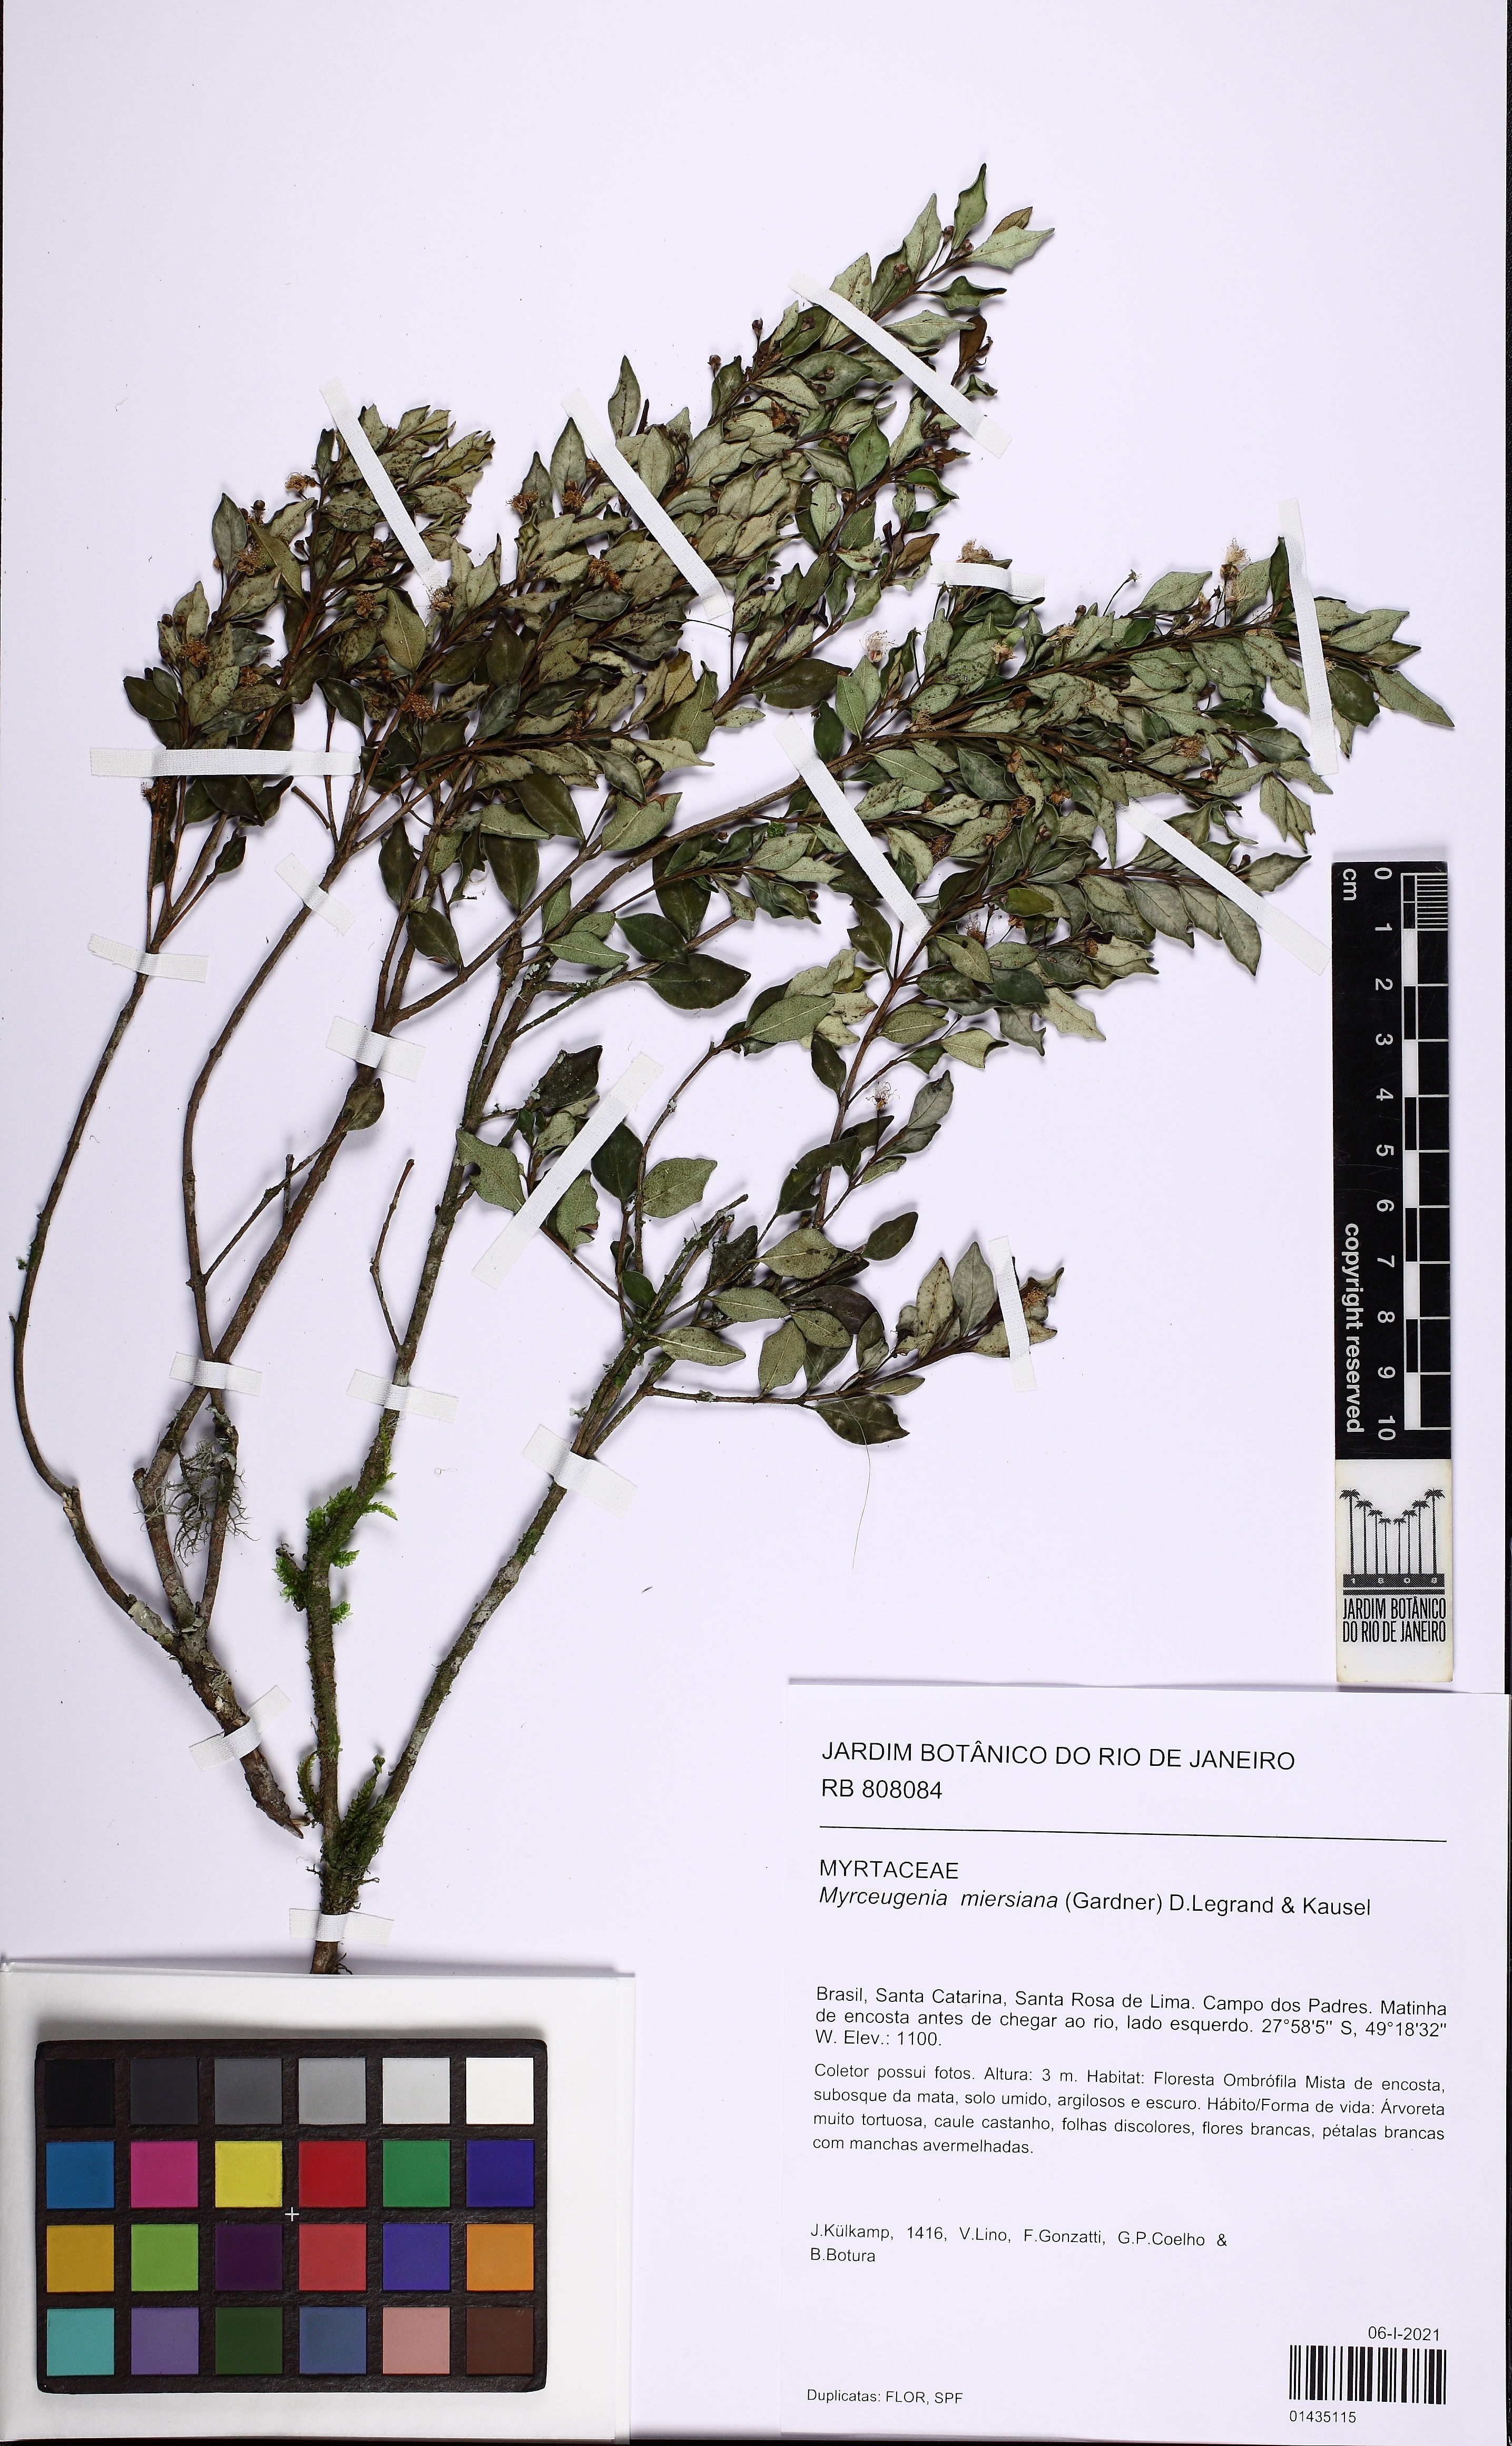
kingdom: Plantae
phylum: Tracheophyta
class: Magnoliopsida
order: Myrtales
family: Myrtaceae
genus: Myrceugenia
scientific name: Myrceugenia miersiana
